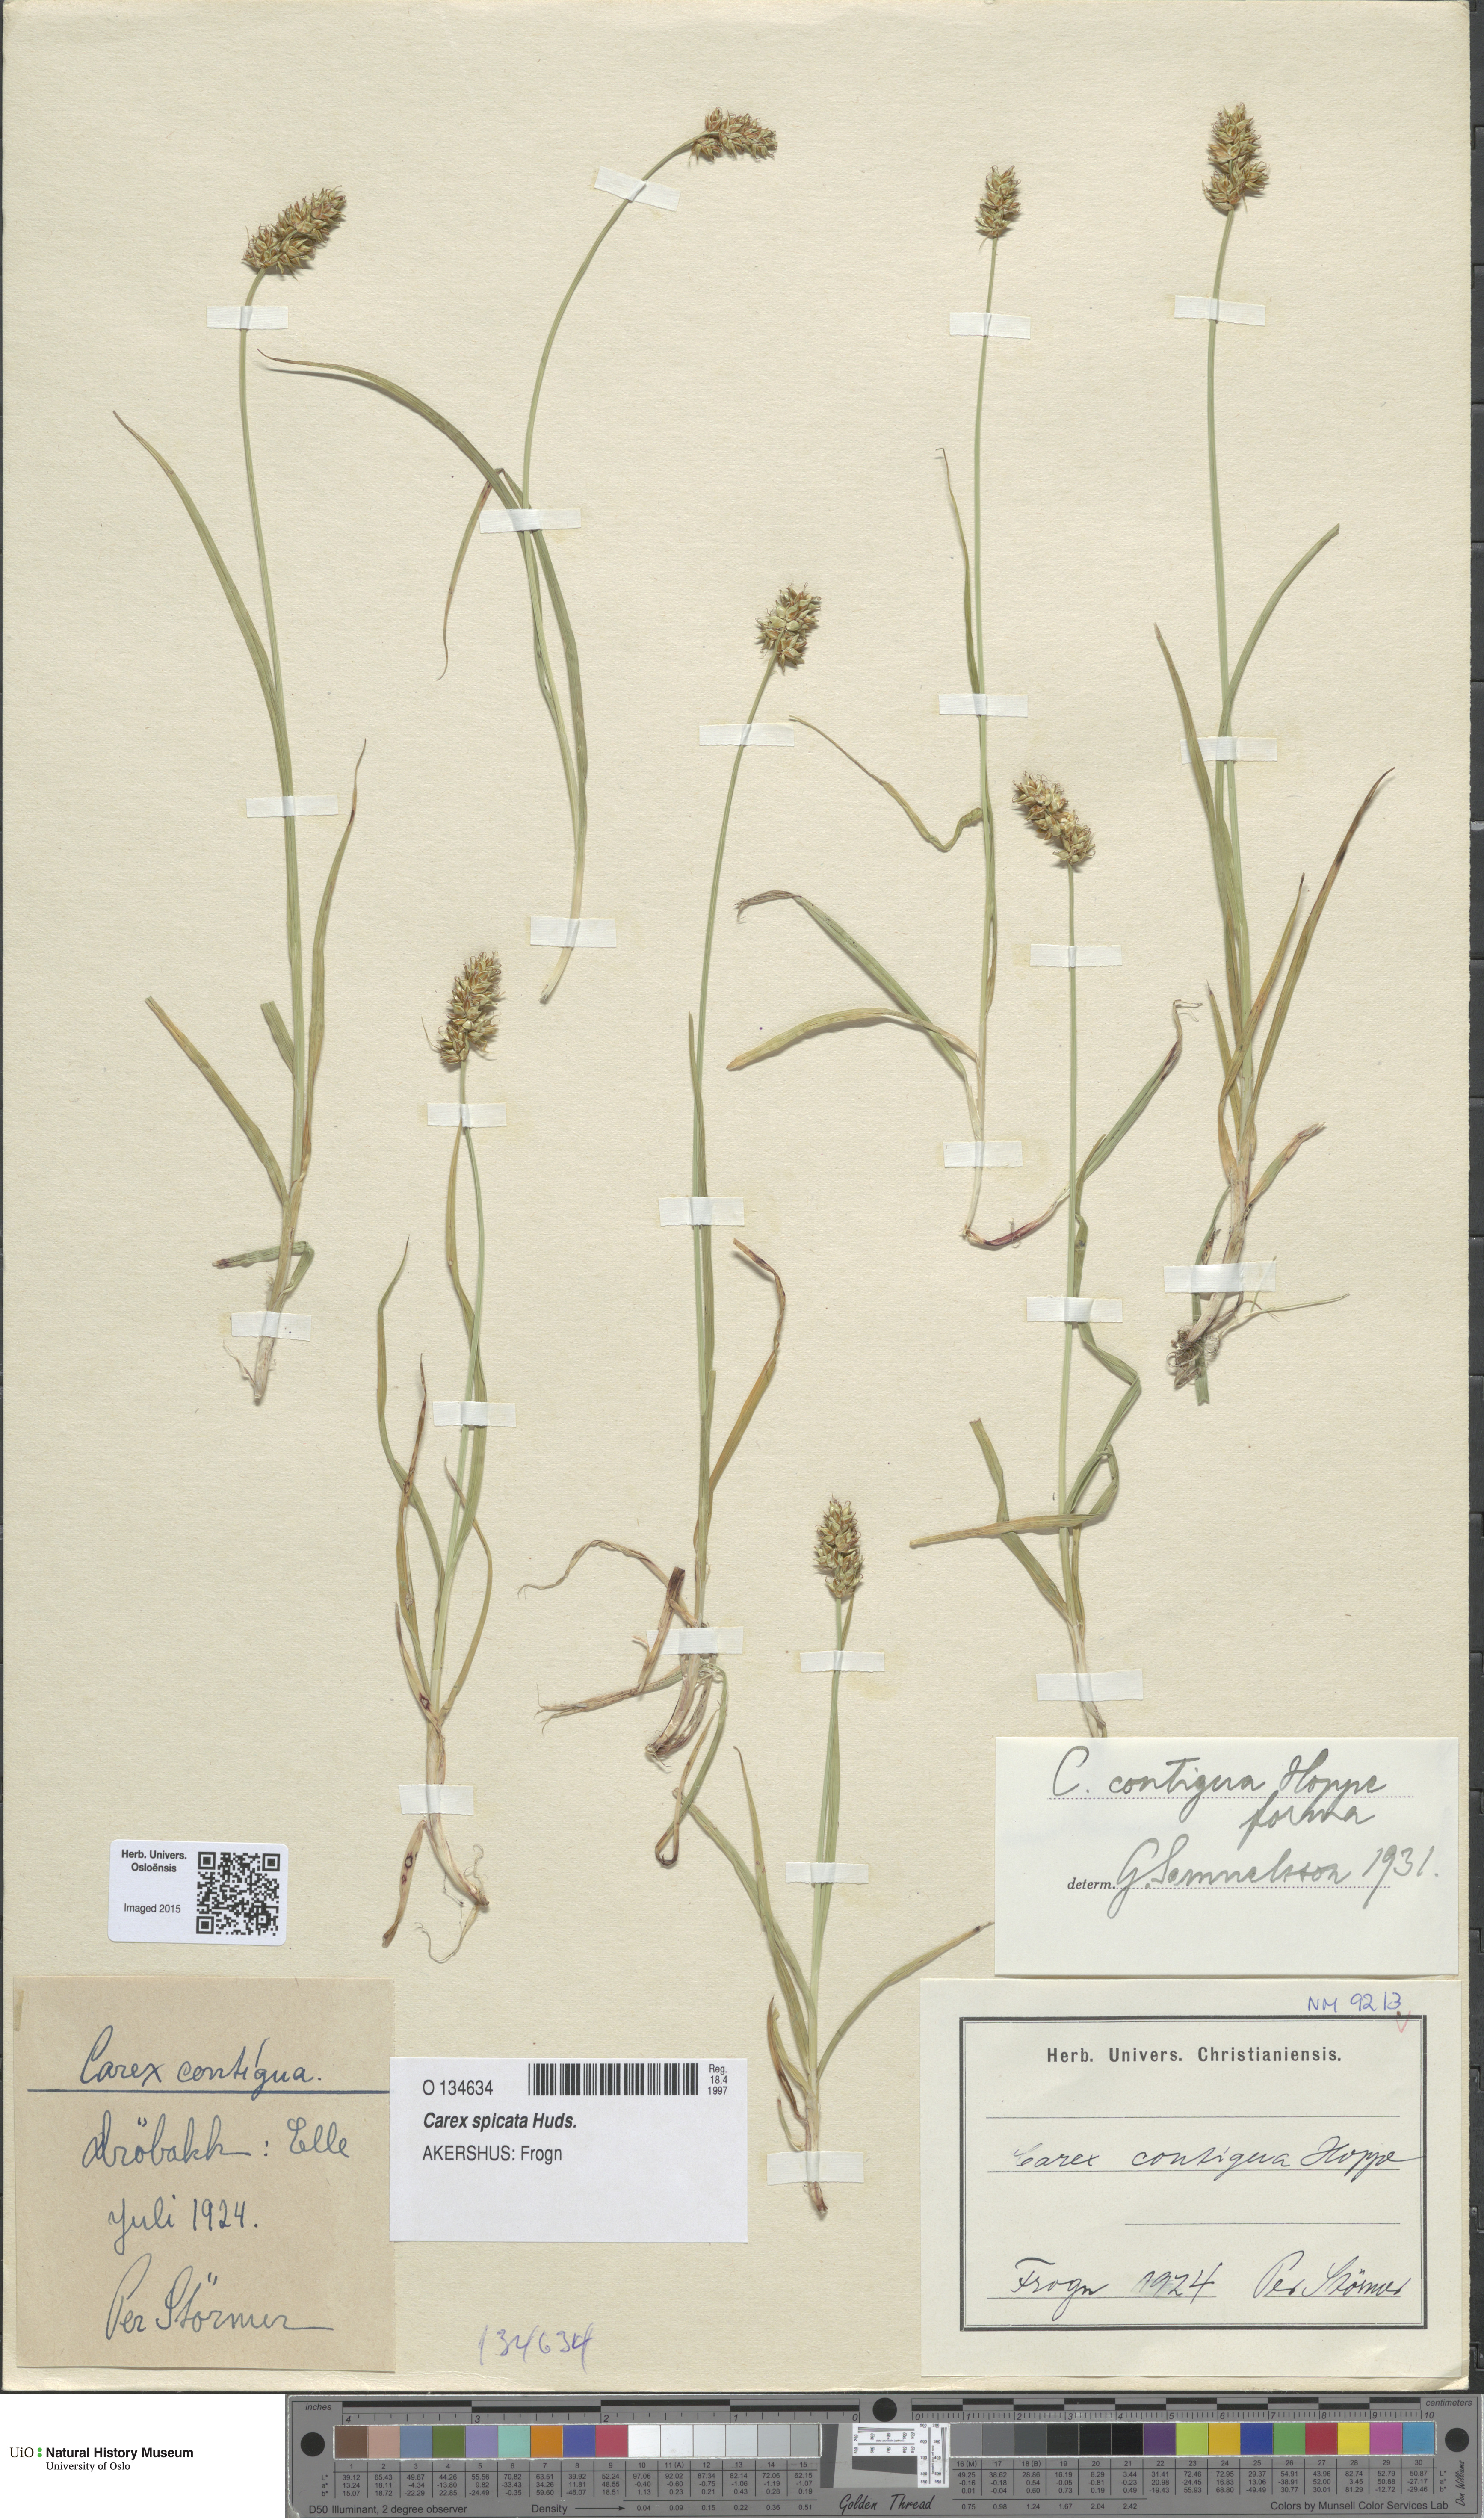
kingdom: Plantae
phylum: Tracheophyta
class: Liliopsida
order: Poales
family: Cyperaceae
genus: Carex
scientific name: Carex spicata
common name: Spiked sedge
